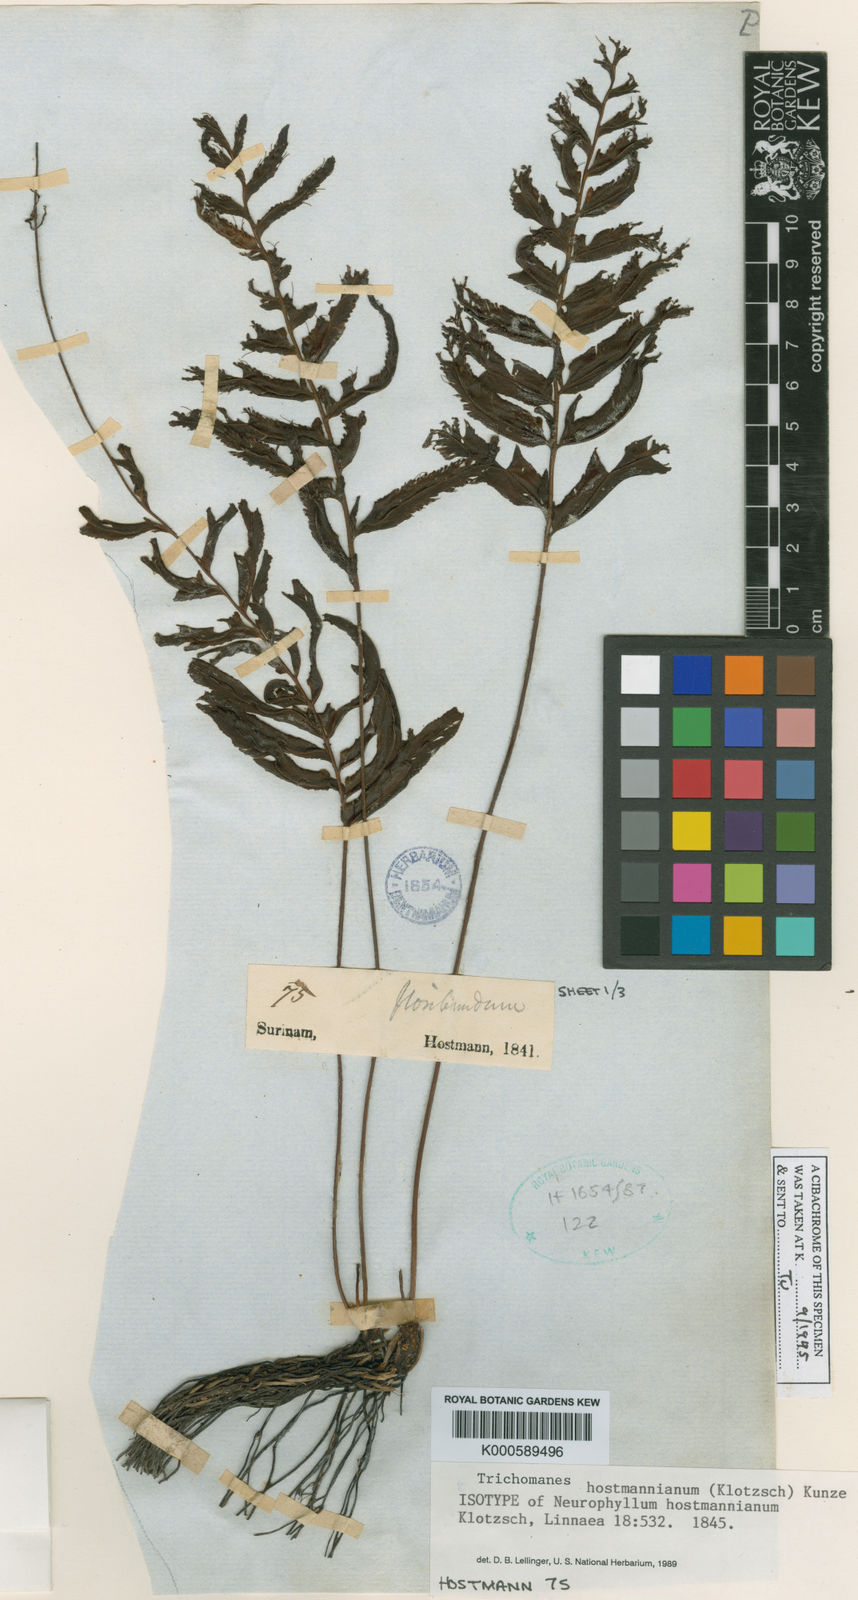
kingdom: Plantae
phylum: Tracheophyta
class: Polypodiopsida
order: Hymenophyllales
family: Hymenophyllaceae
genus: Trichomanes
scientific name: Trichomanes hostmannianum
